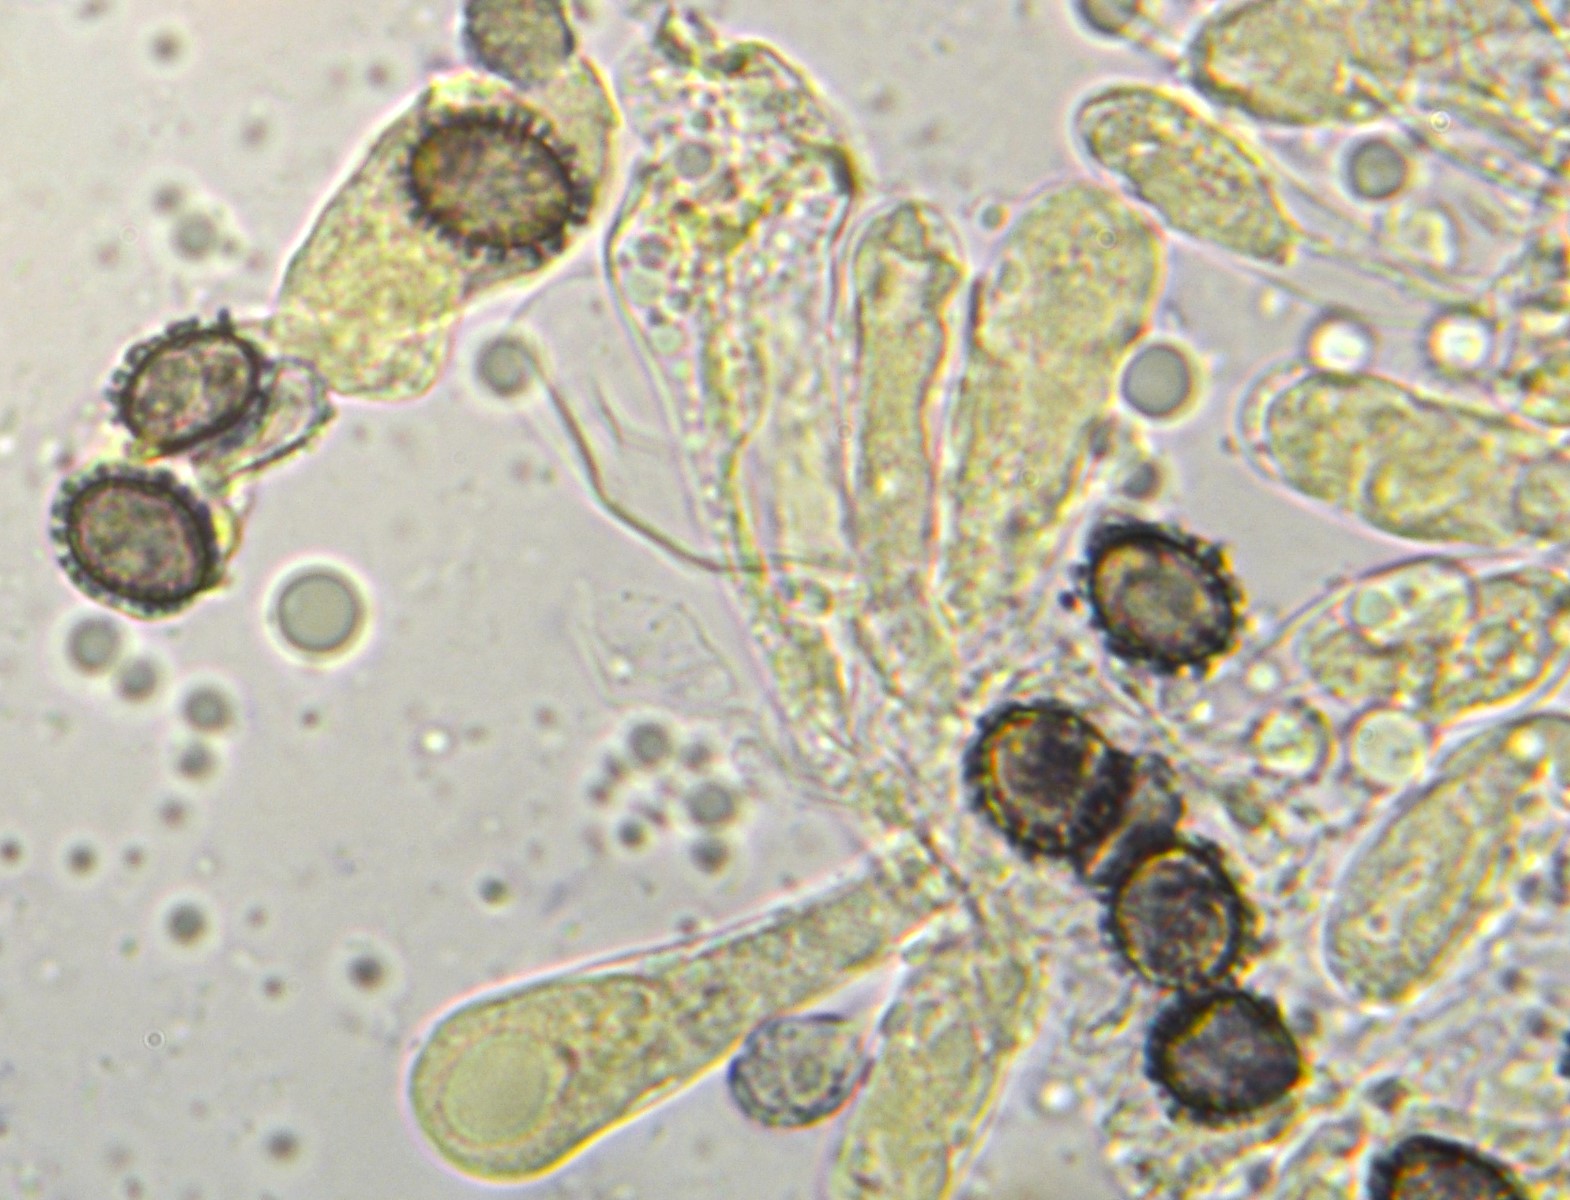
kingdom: Fungi
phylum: Basidiomycota
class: Agaricomycetes
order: Russulales
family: Russulaceae
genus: Russula
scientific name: Russula cuprea
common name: kanel-skørhat
